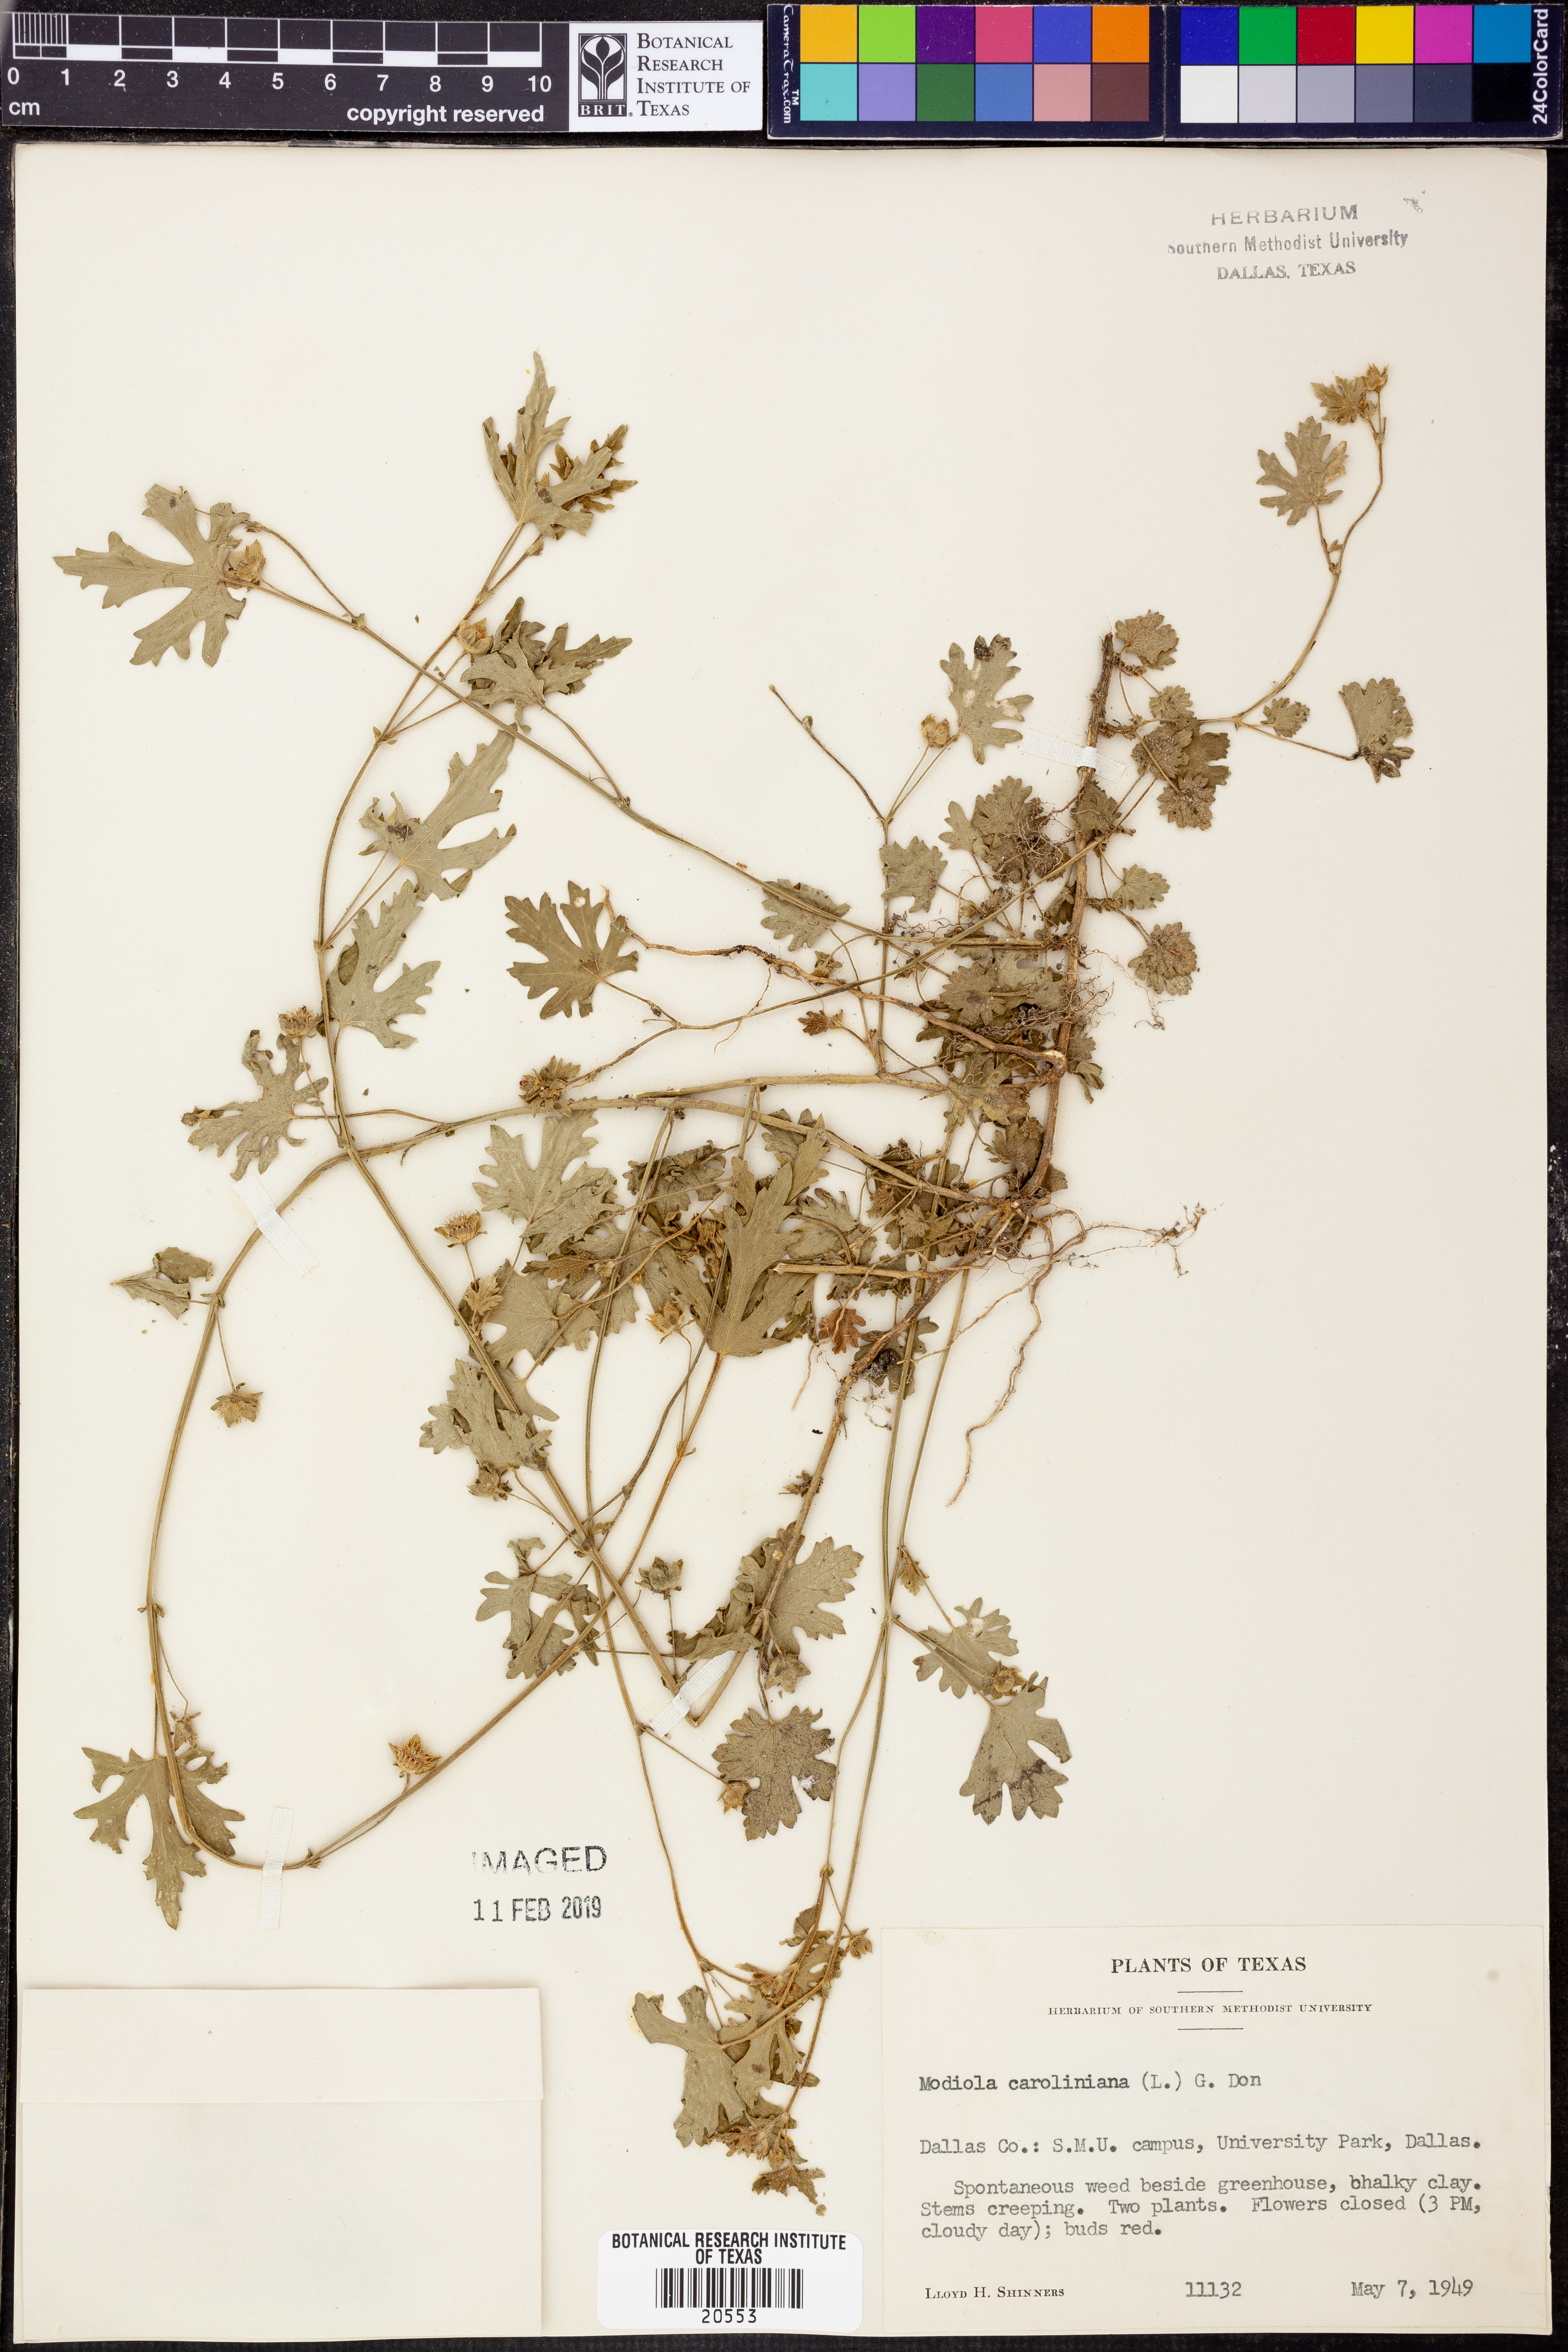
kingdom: Plantae
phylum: Tracheophyta
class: Magnoliopsida
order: Malvales
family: Malvaceae
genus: Modiola
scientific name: Modiola caroliniana
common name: Carolina bristlemallow
